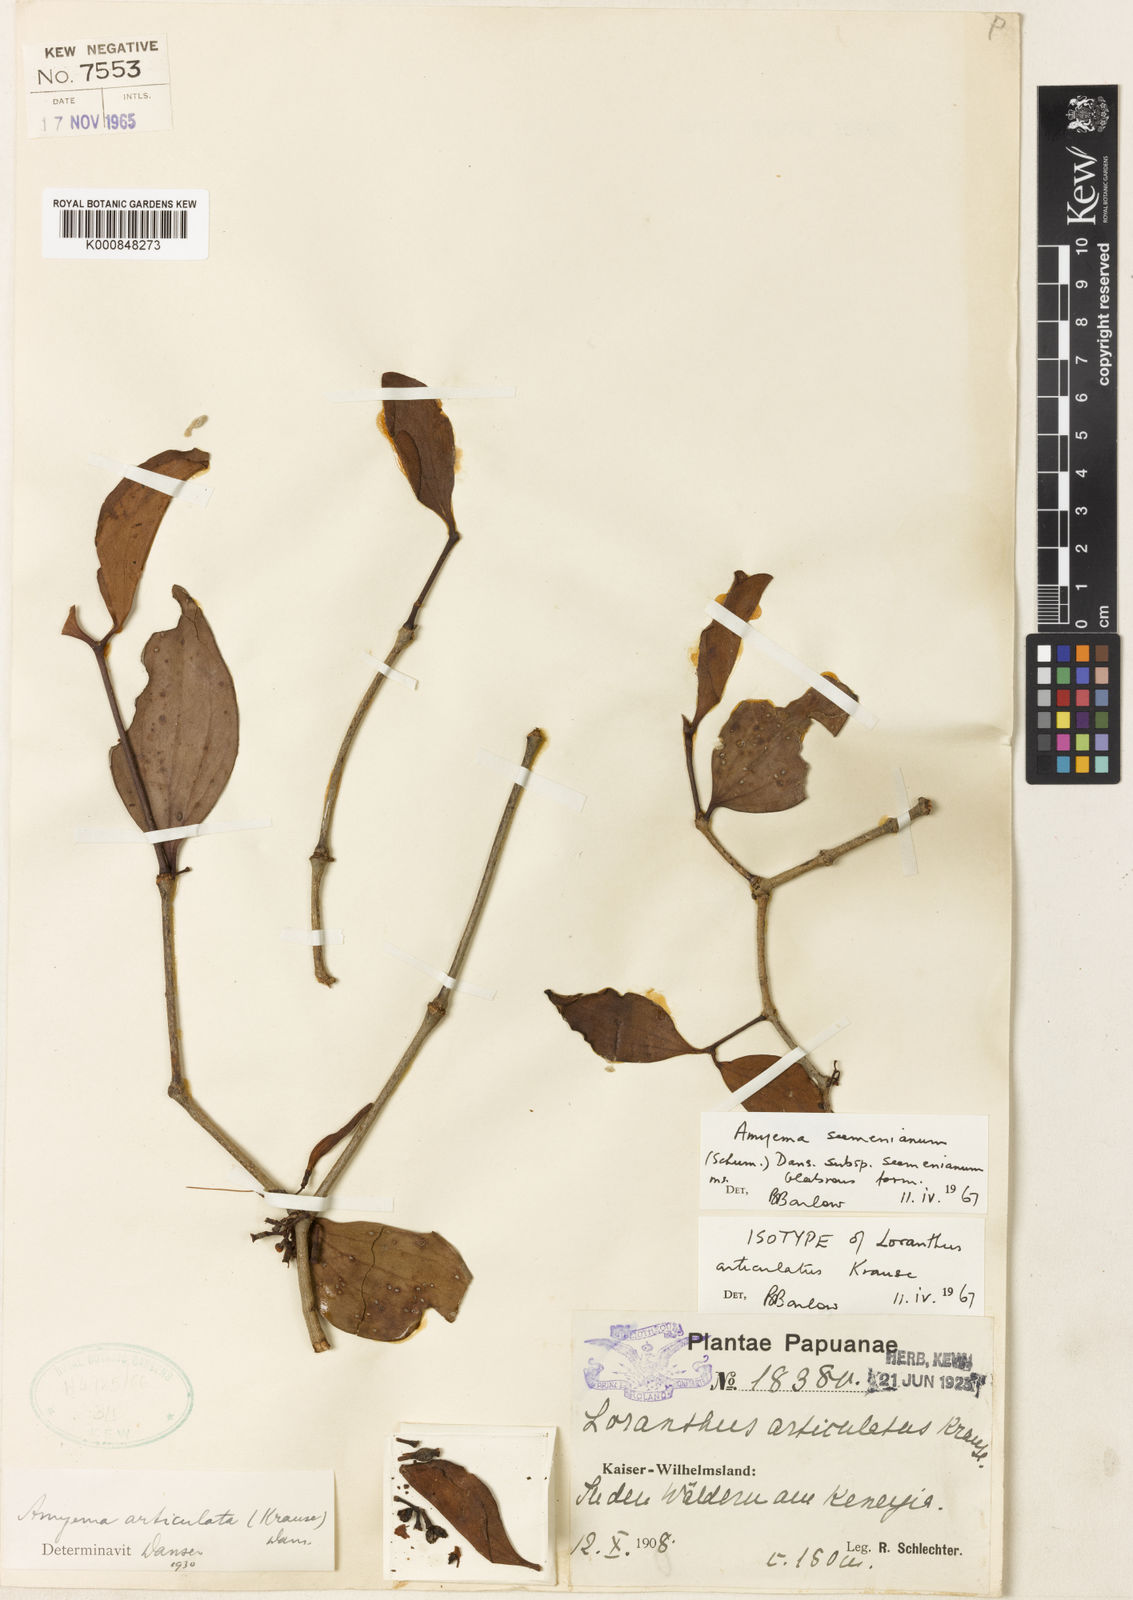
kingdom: Plantae
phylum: Tracheophyta
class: Magnoliopsida
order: Santalales
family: Loranthaceae
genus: Amyema
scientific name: Amyema seemeniana
